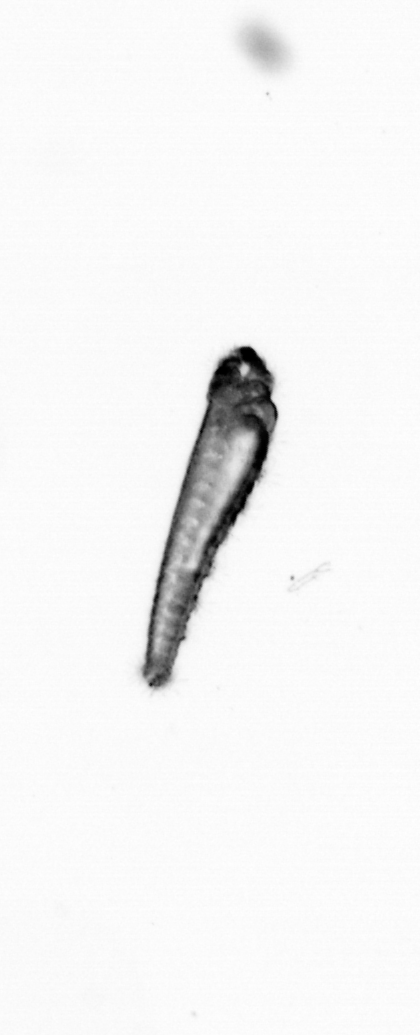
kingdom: Animalia
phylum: Chordata
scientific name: Chordata
